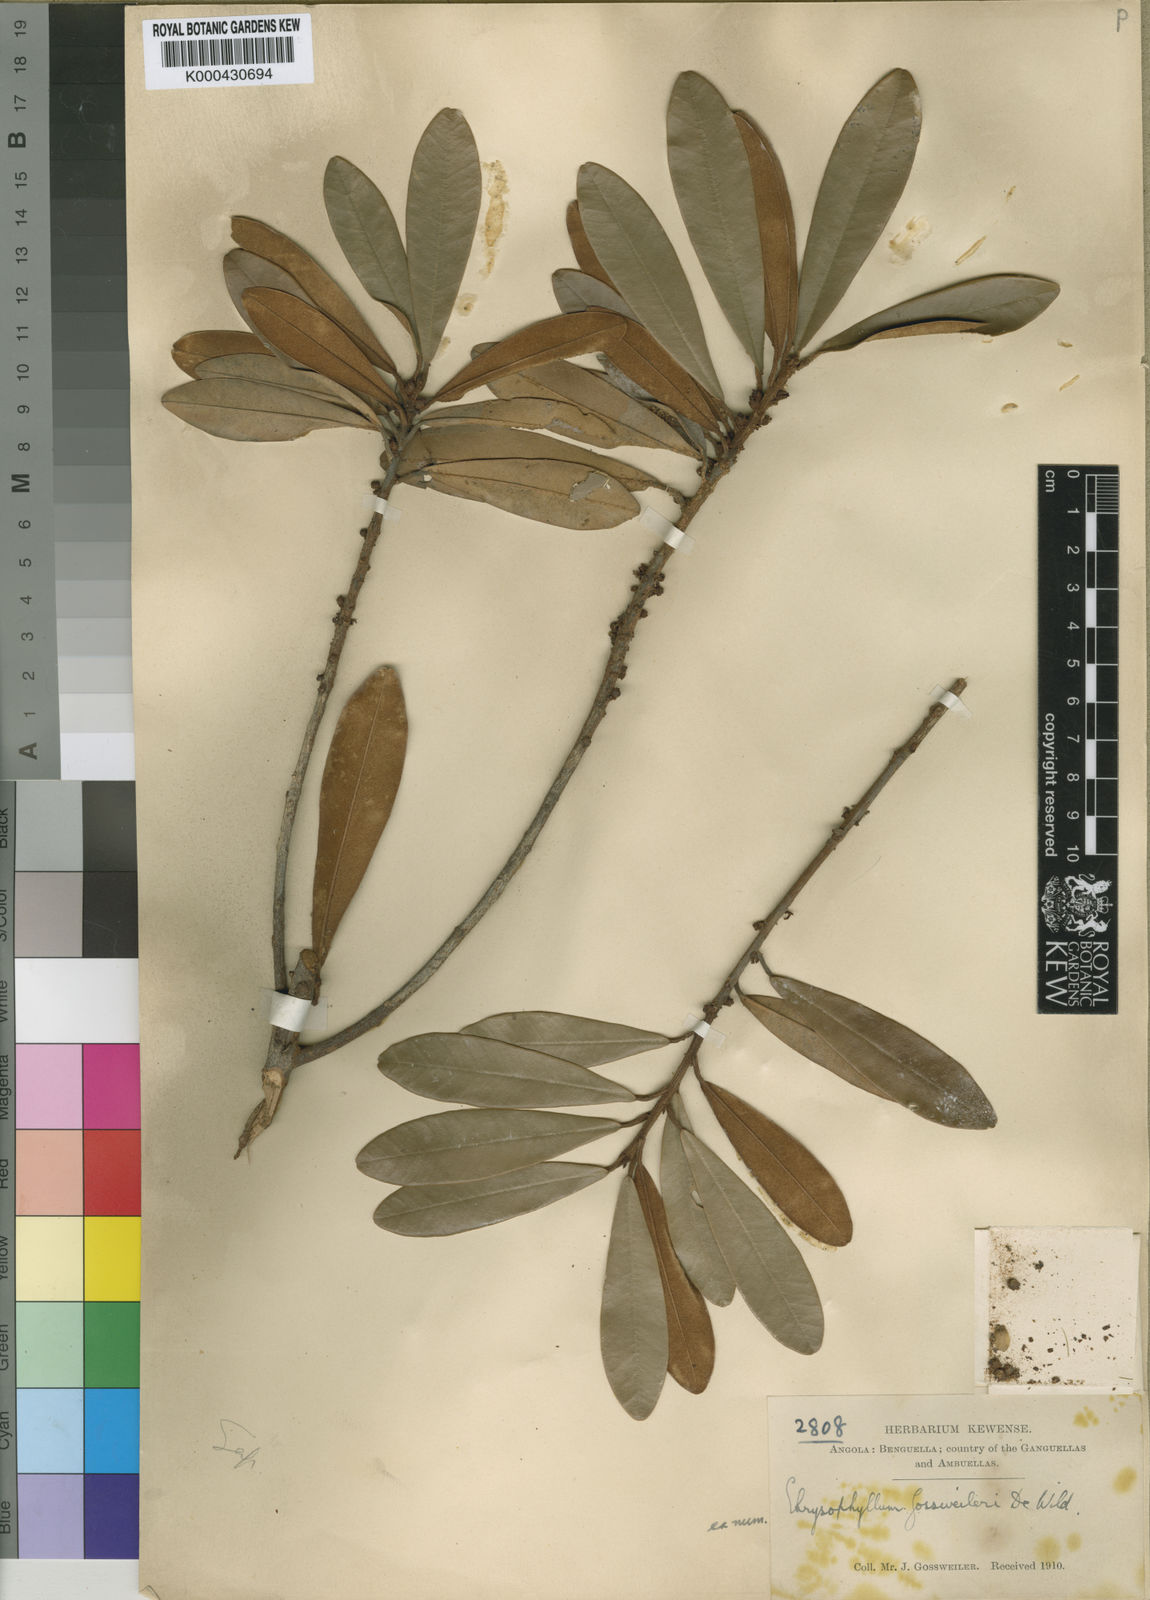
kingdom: Plantae
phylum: Tracheophyta
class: Magnoliopsida
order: Ericales
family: Sapotaceae
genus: Englerophytum
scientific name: Englerophytum
